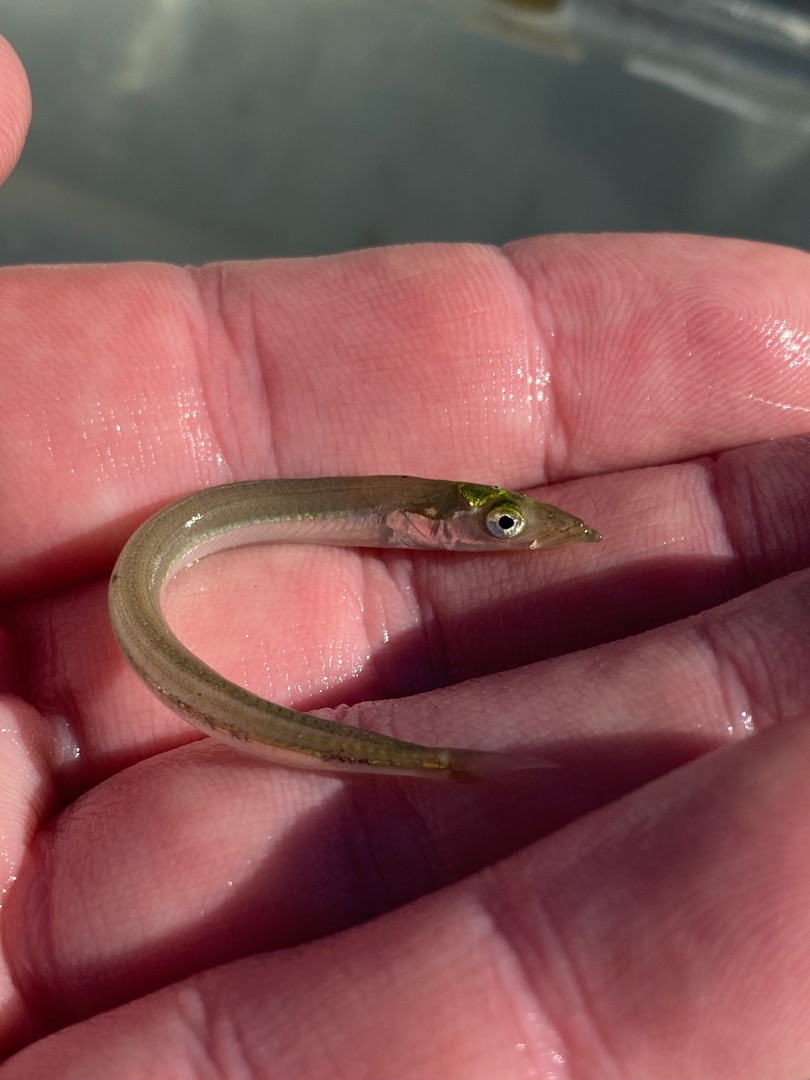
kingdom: Animalia
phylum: Chordata
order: Perciformes
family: Ammodytidae
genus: Ammodytes
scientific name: Ammodytes tobianus
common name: Kysttobis
